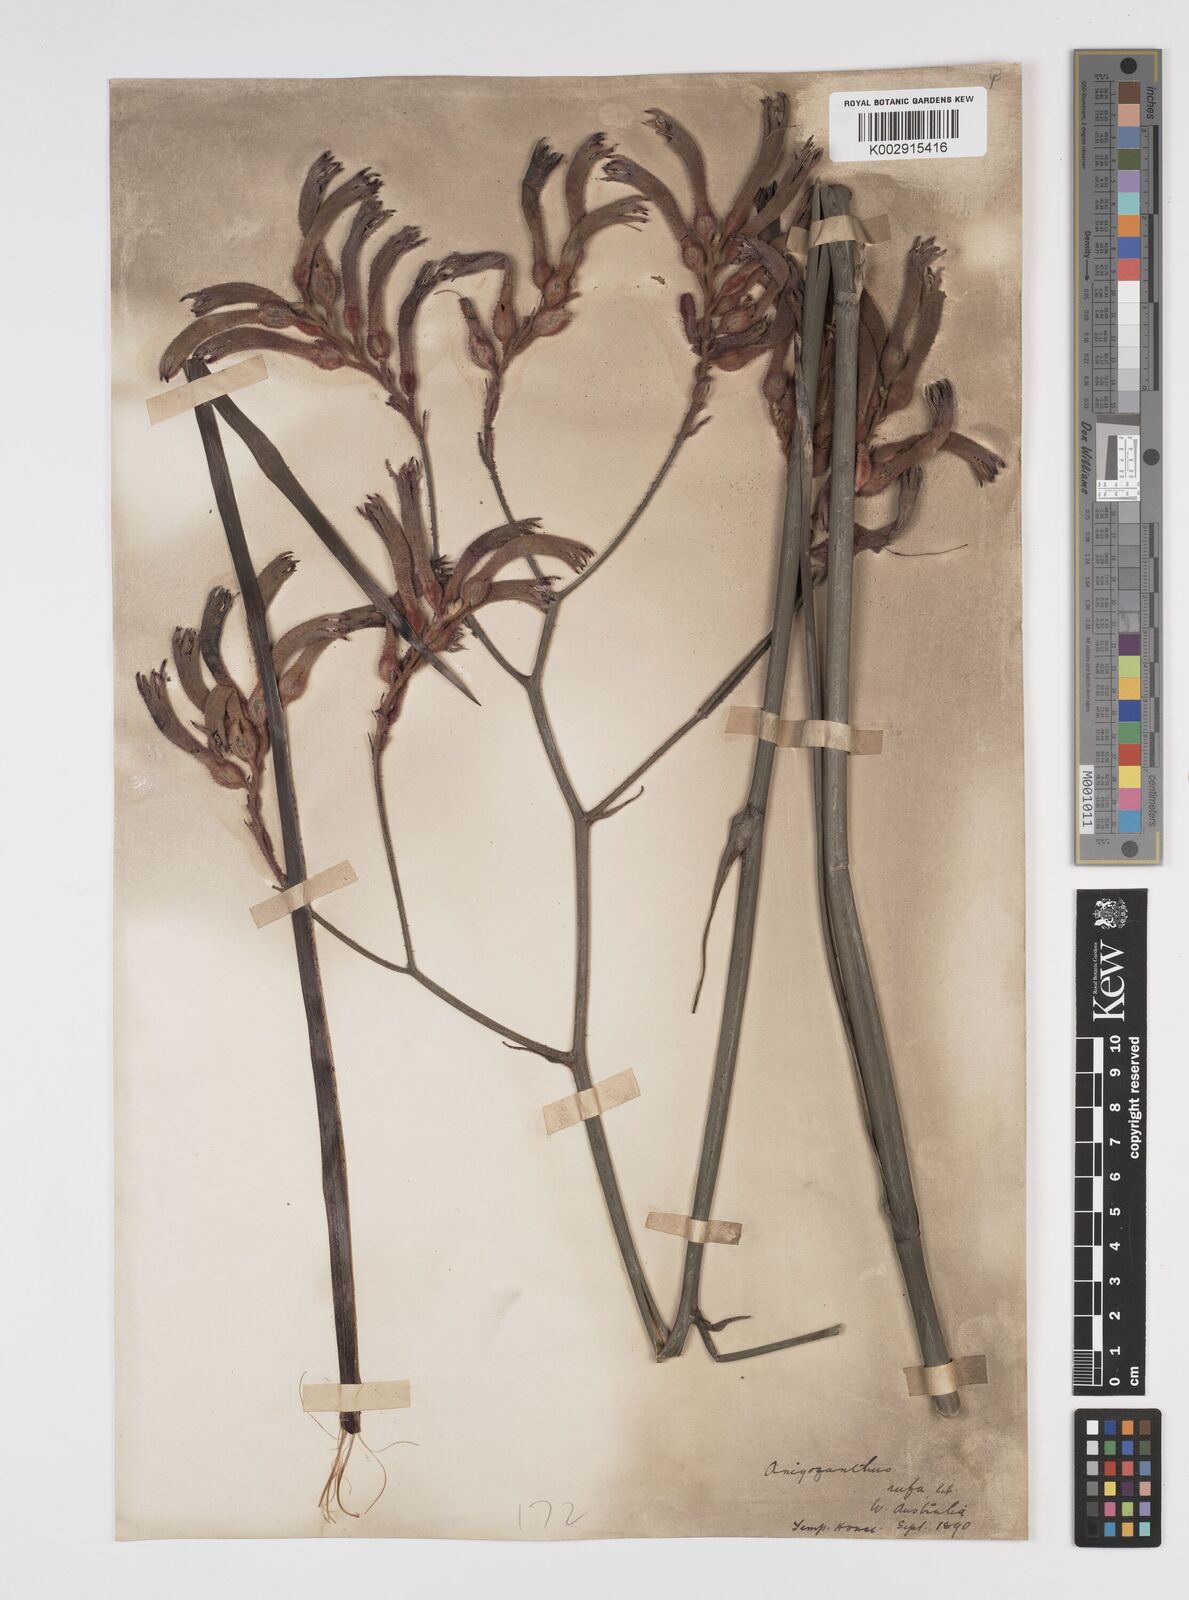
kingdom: Plantae
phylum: Tracheophyta
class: Liliopsida
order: Commelinales
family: Haemodoraceae
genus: Anigozanthos
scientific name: Anigozanthos rufus
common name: Red kangaroo-paw
